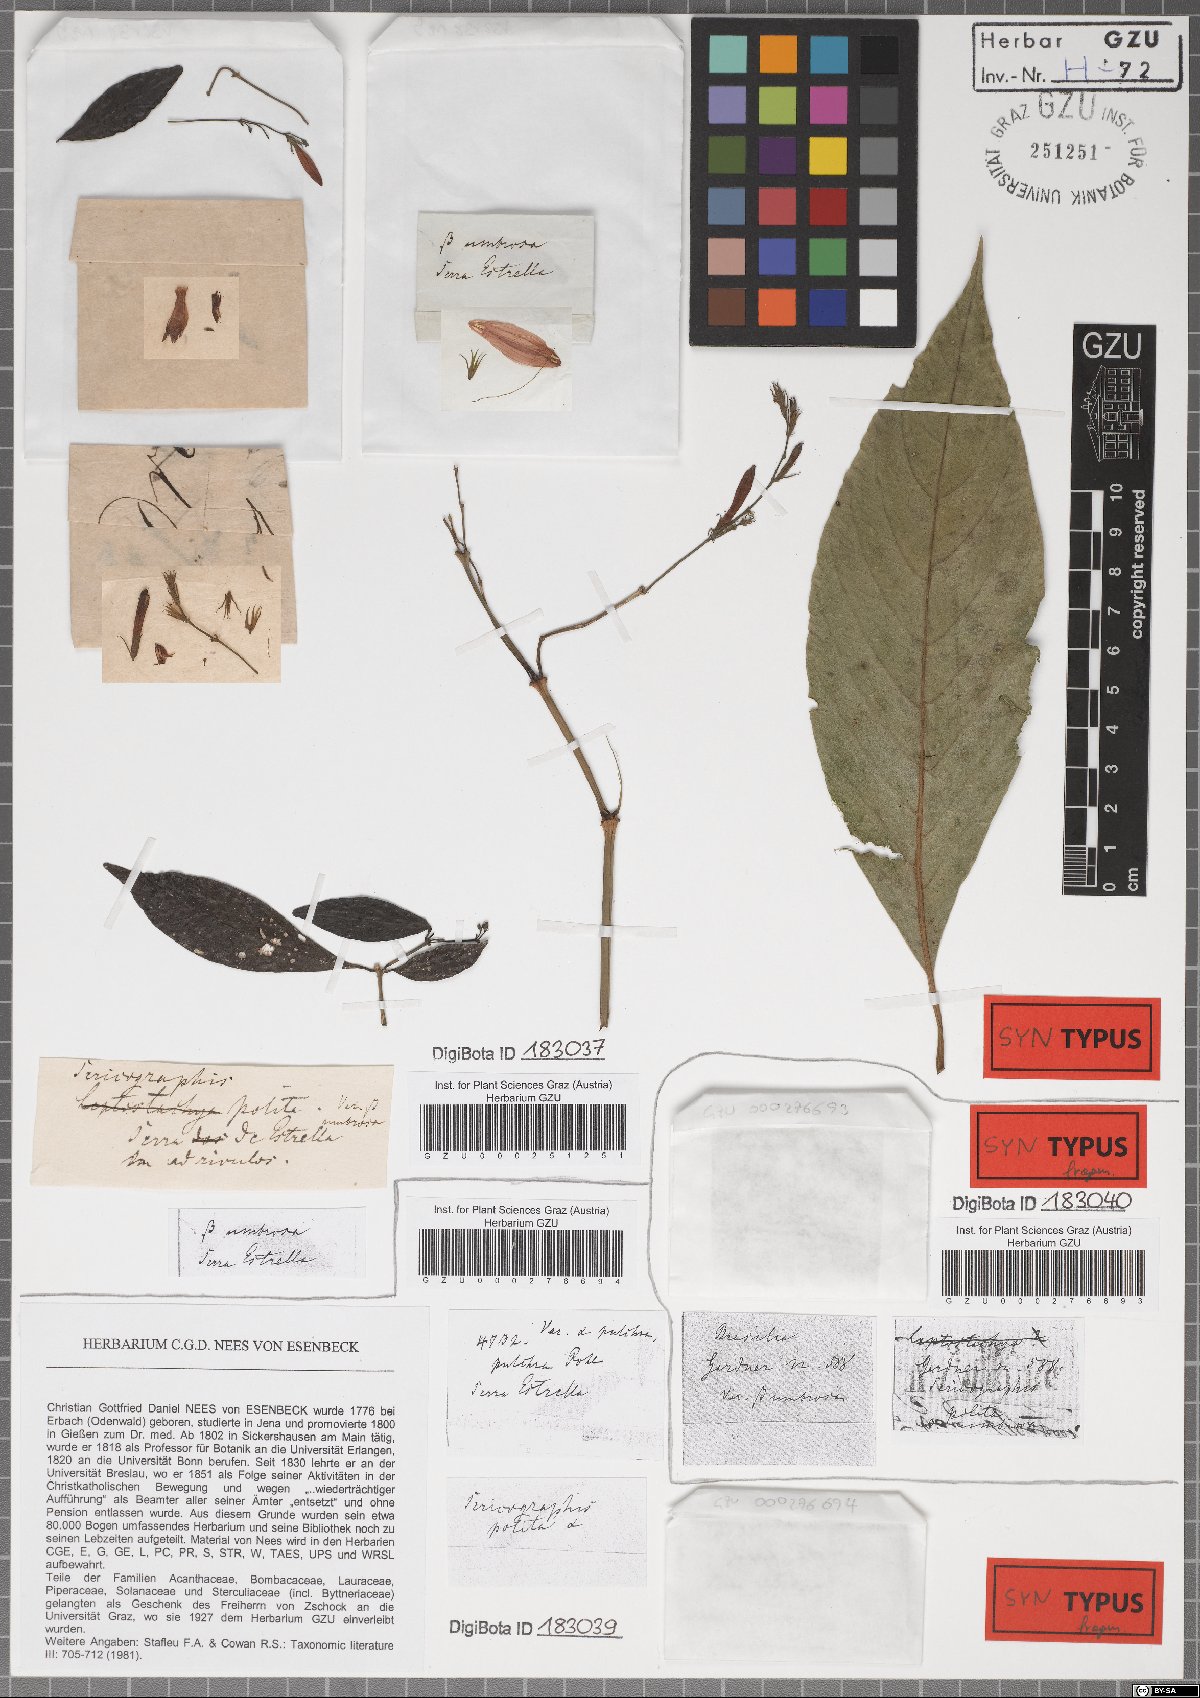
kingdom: Plantae
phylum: Tracheophyta
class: Magnoliopsida
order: Lamiales
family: Acanthaceae
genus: Justicia
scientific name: Justicia polita
